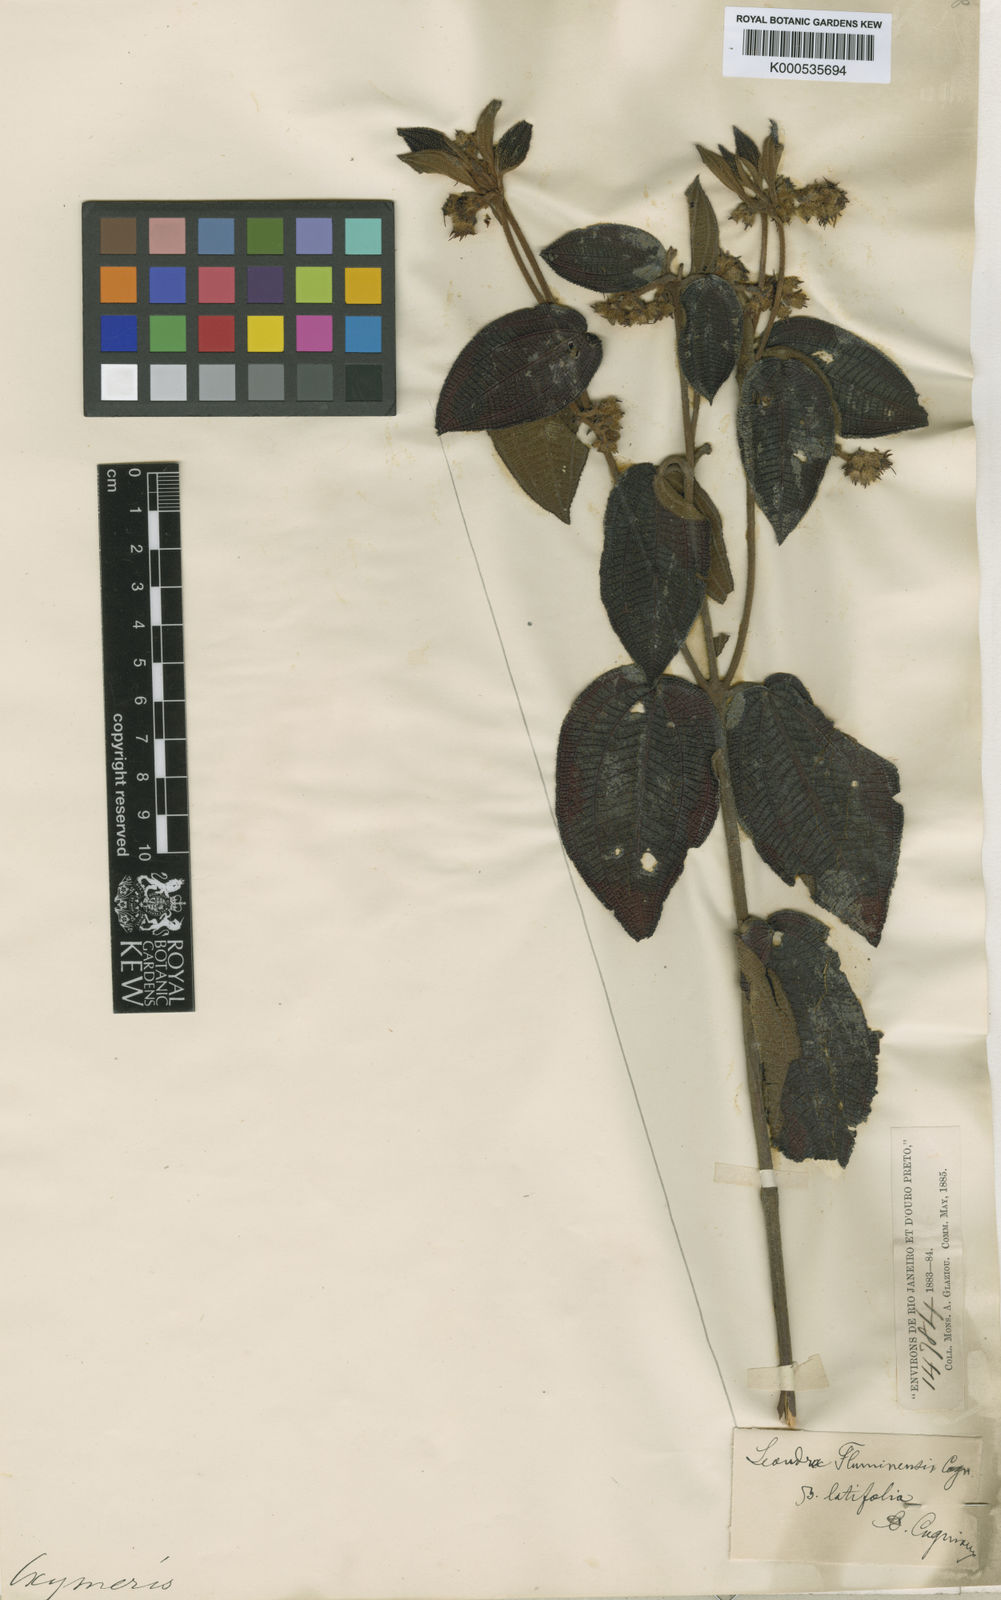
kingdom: Plantae
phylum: Tracheophyta
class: Magnoliopsida
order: Myrtales
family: Melastomataceae
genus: Miconia
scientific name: Miconia leafluminensis
